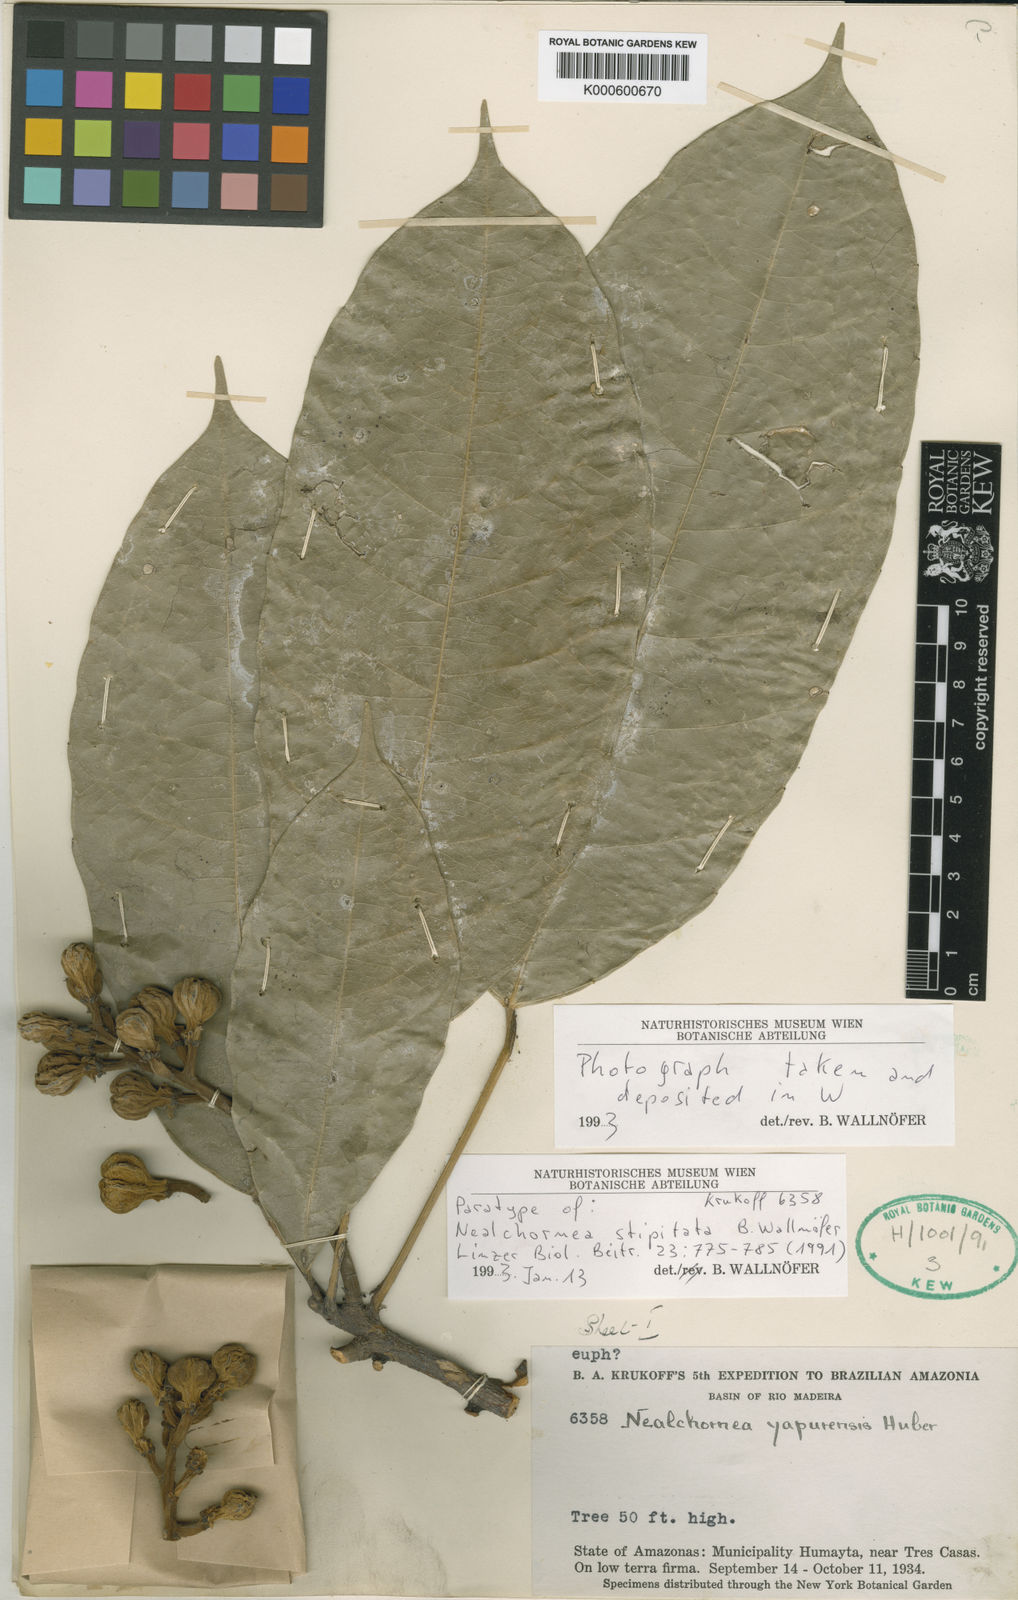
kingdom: Plantae
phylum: Tracheophyta
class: Magnoliopsida
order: Malpighiales
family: Euphorbiaceae
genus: Nealchornea
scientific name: Nealchornea stipitata
